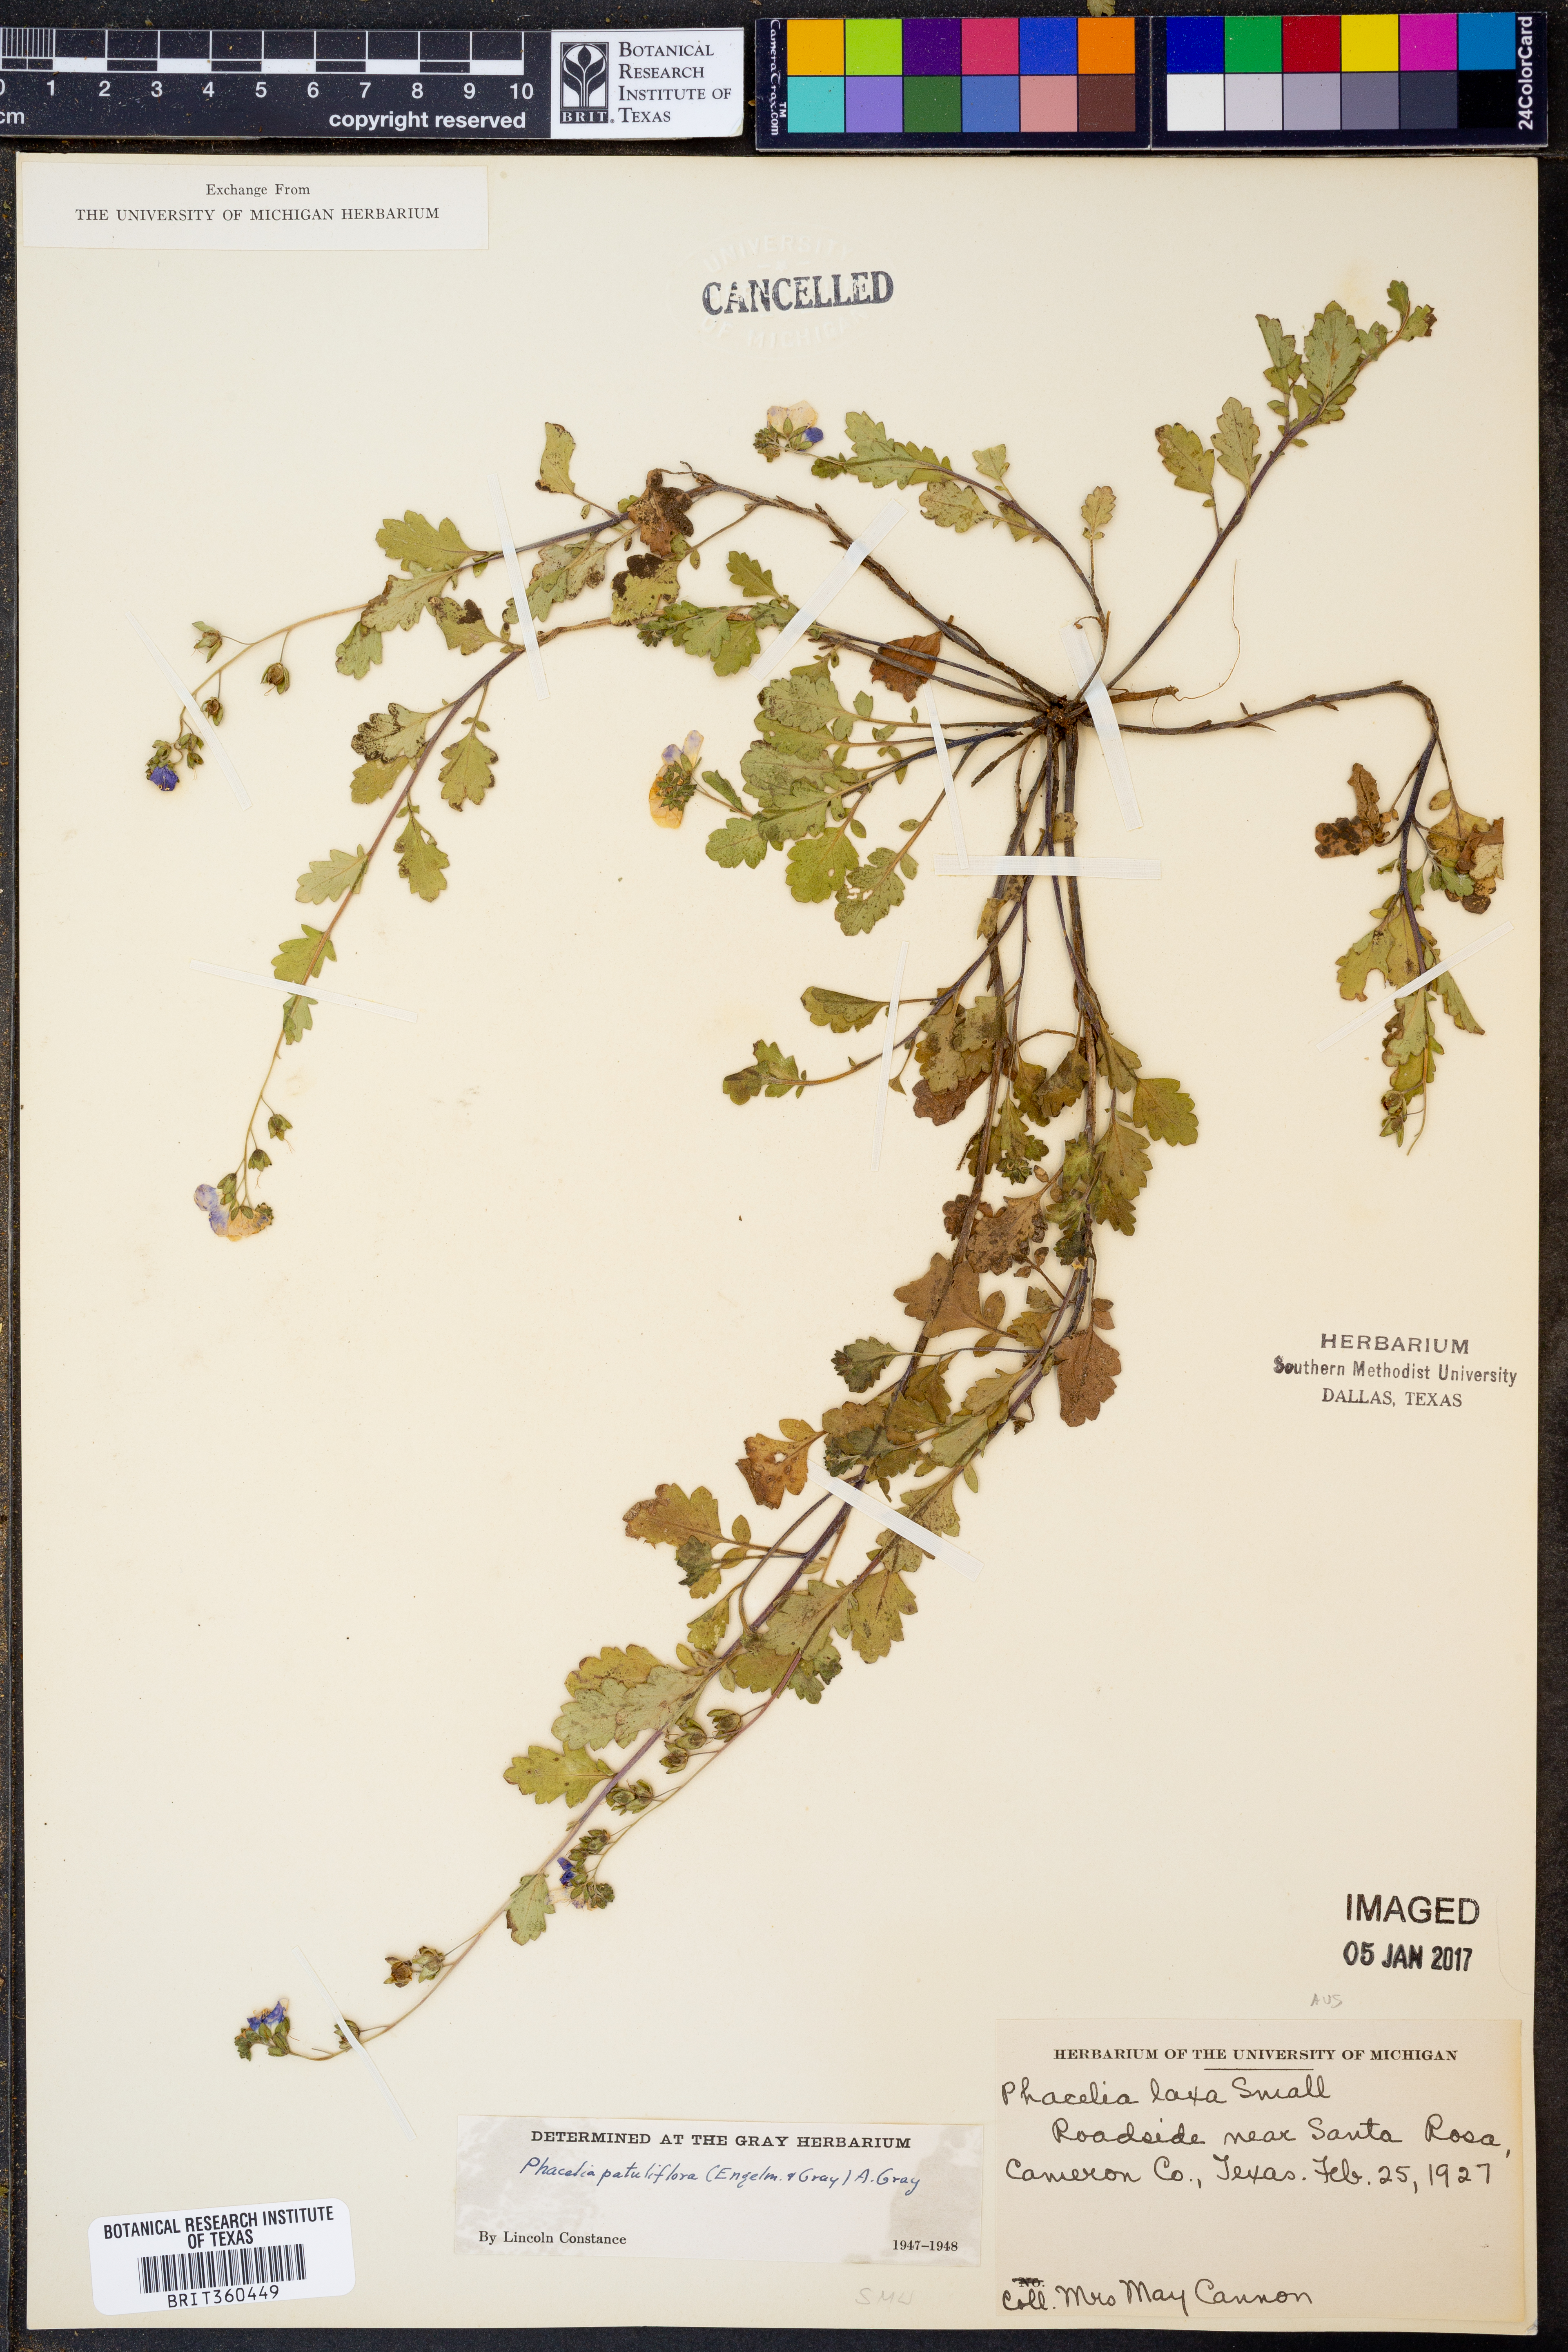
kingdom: Plantae
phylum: Tracheophyta
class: Magnoliopsida
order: Boraginales
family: Hydrophyllaceae
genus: Phacelia
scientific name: Phacelia patuliflora
